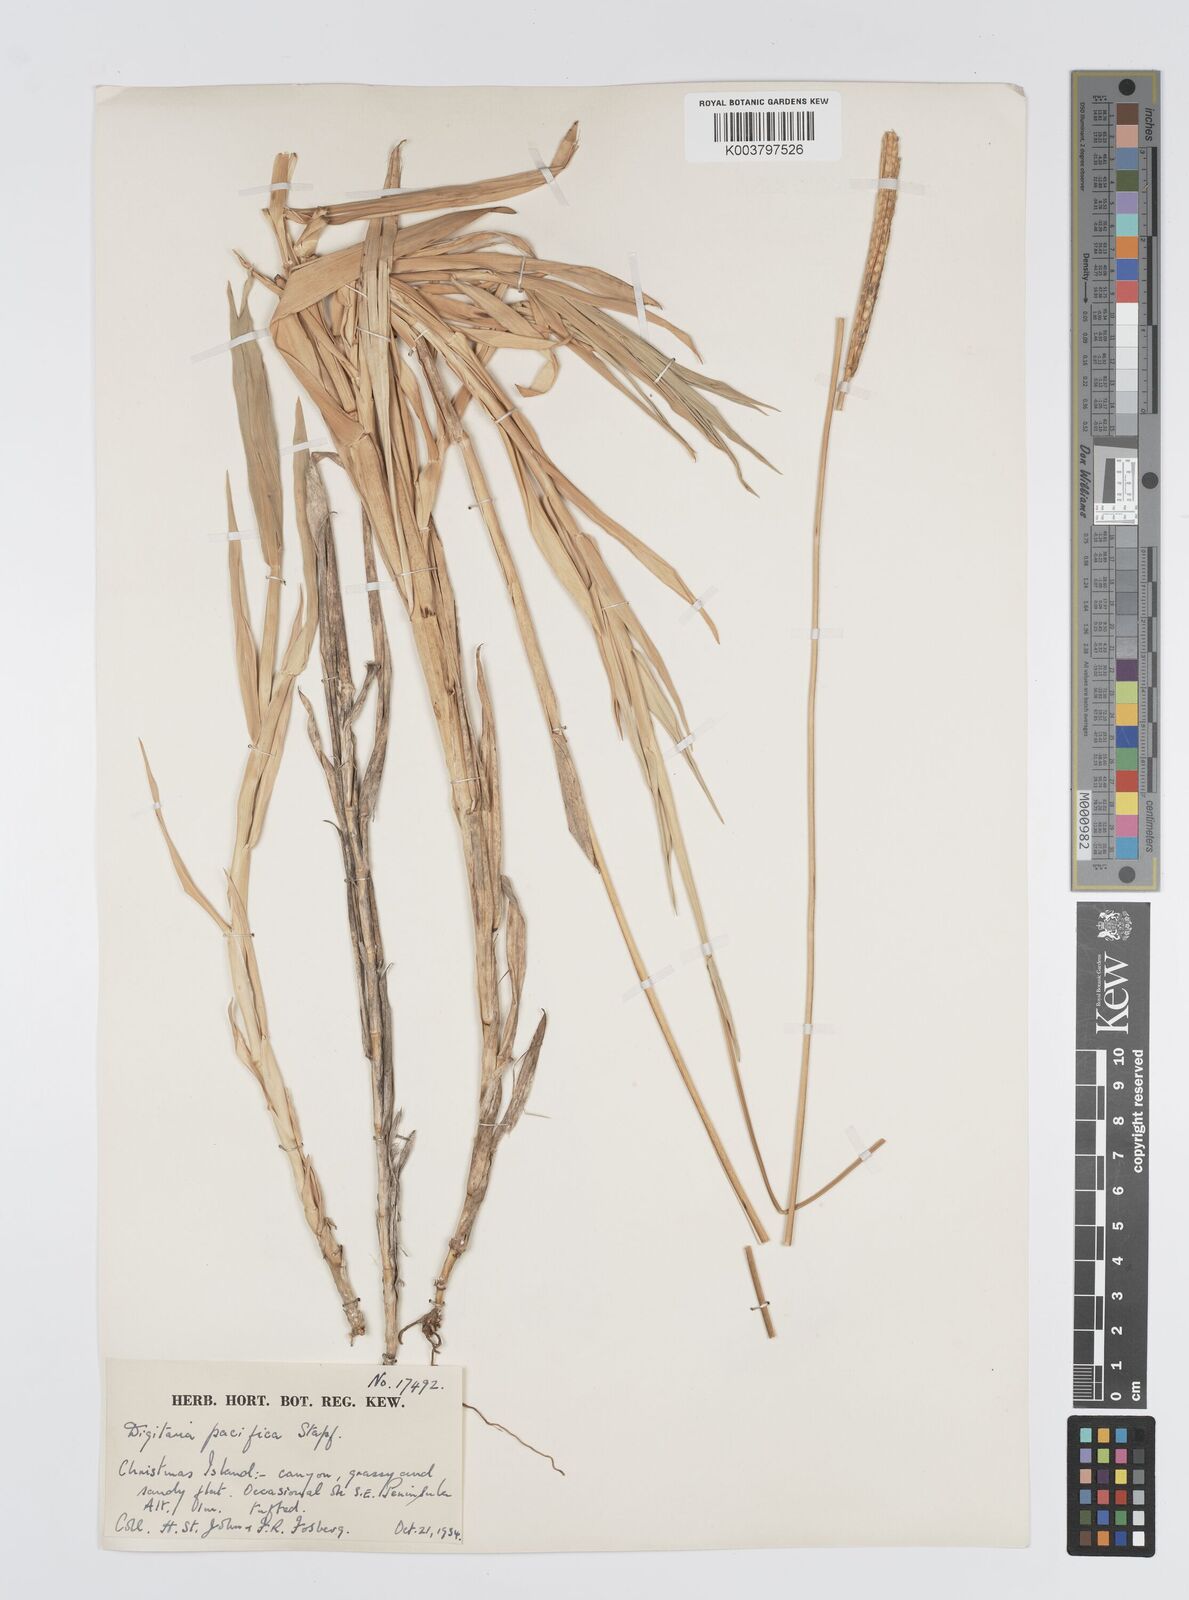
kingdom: Plantae
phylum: Tracheophyta
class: Liliopsida
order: Poales
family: Poaceae
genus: Digitaria
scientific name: Digitaria stenotaphrodes
